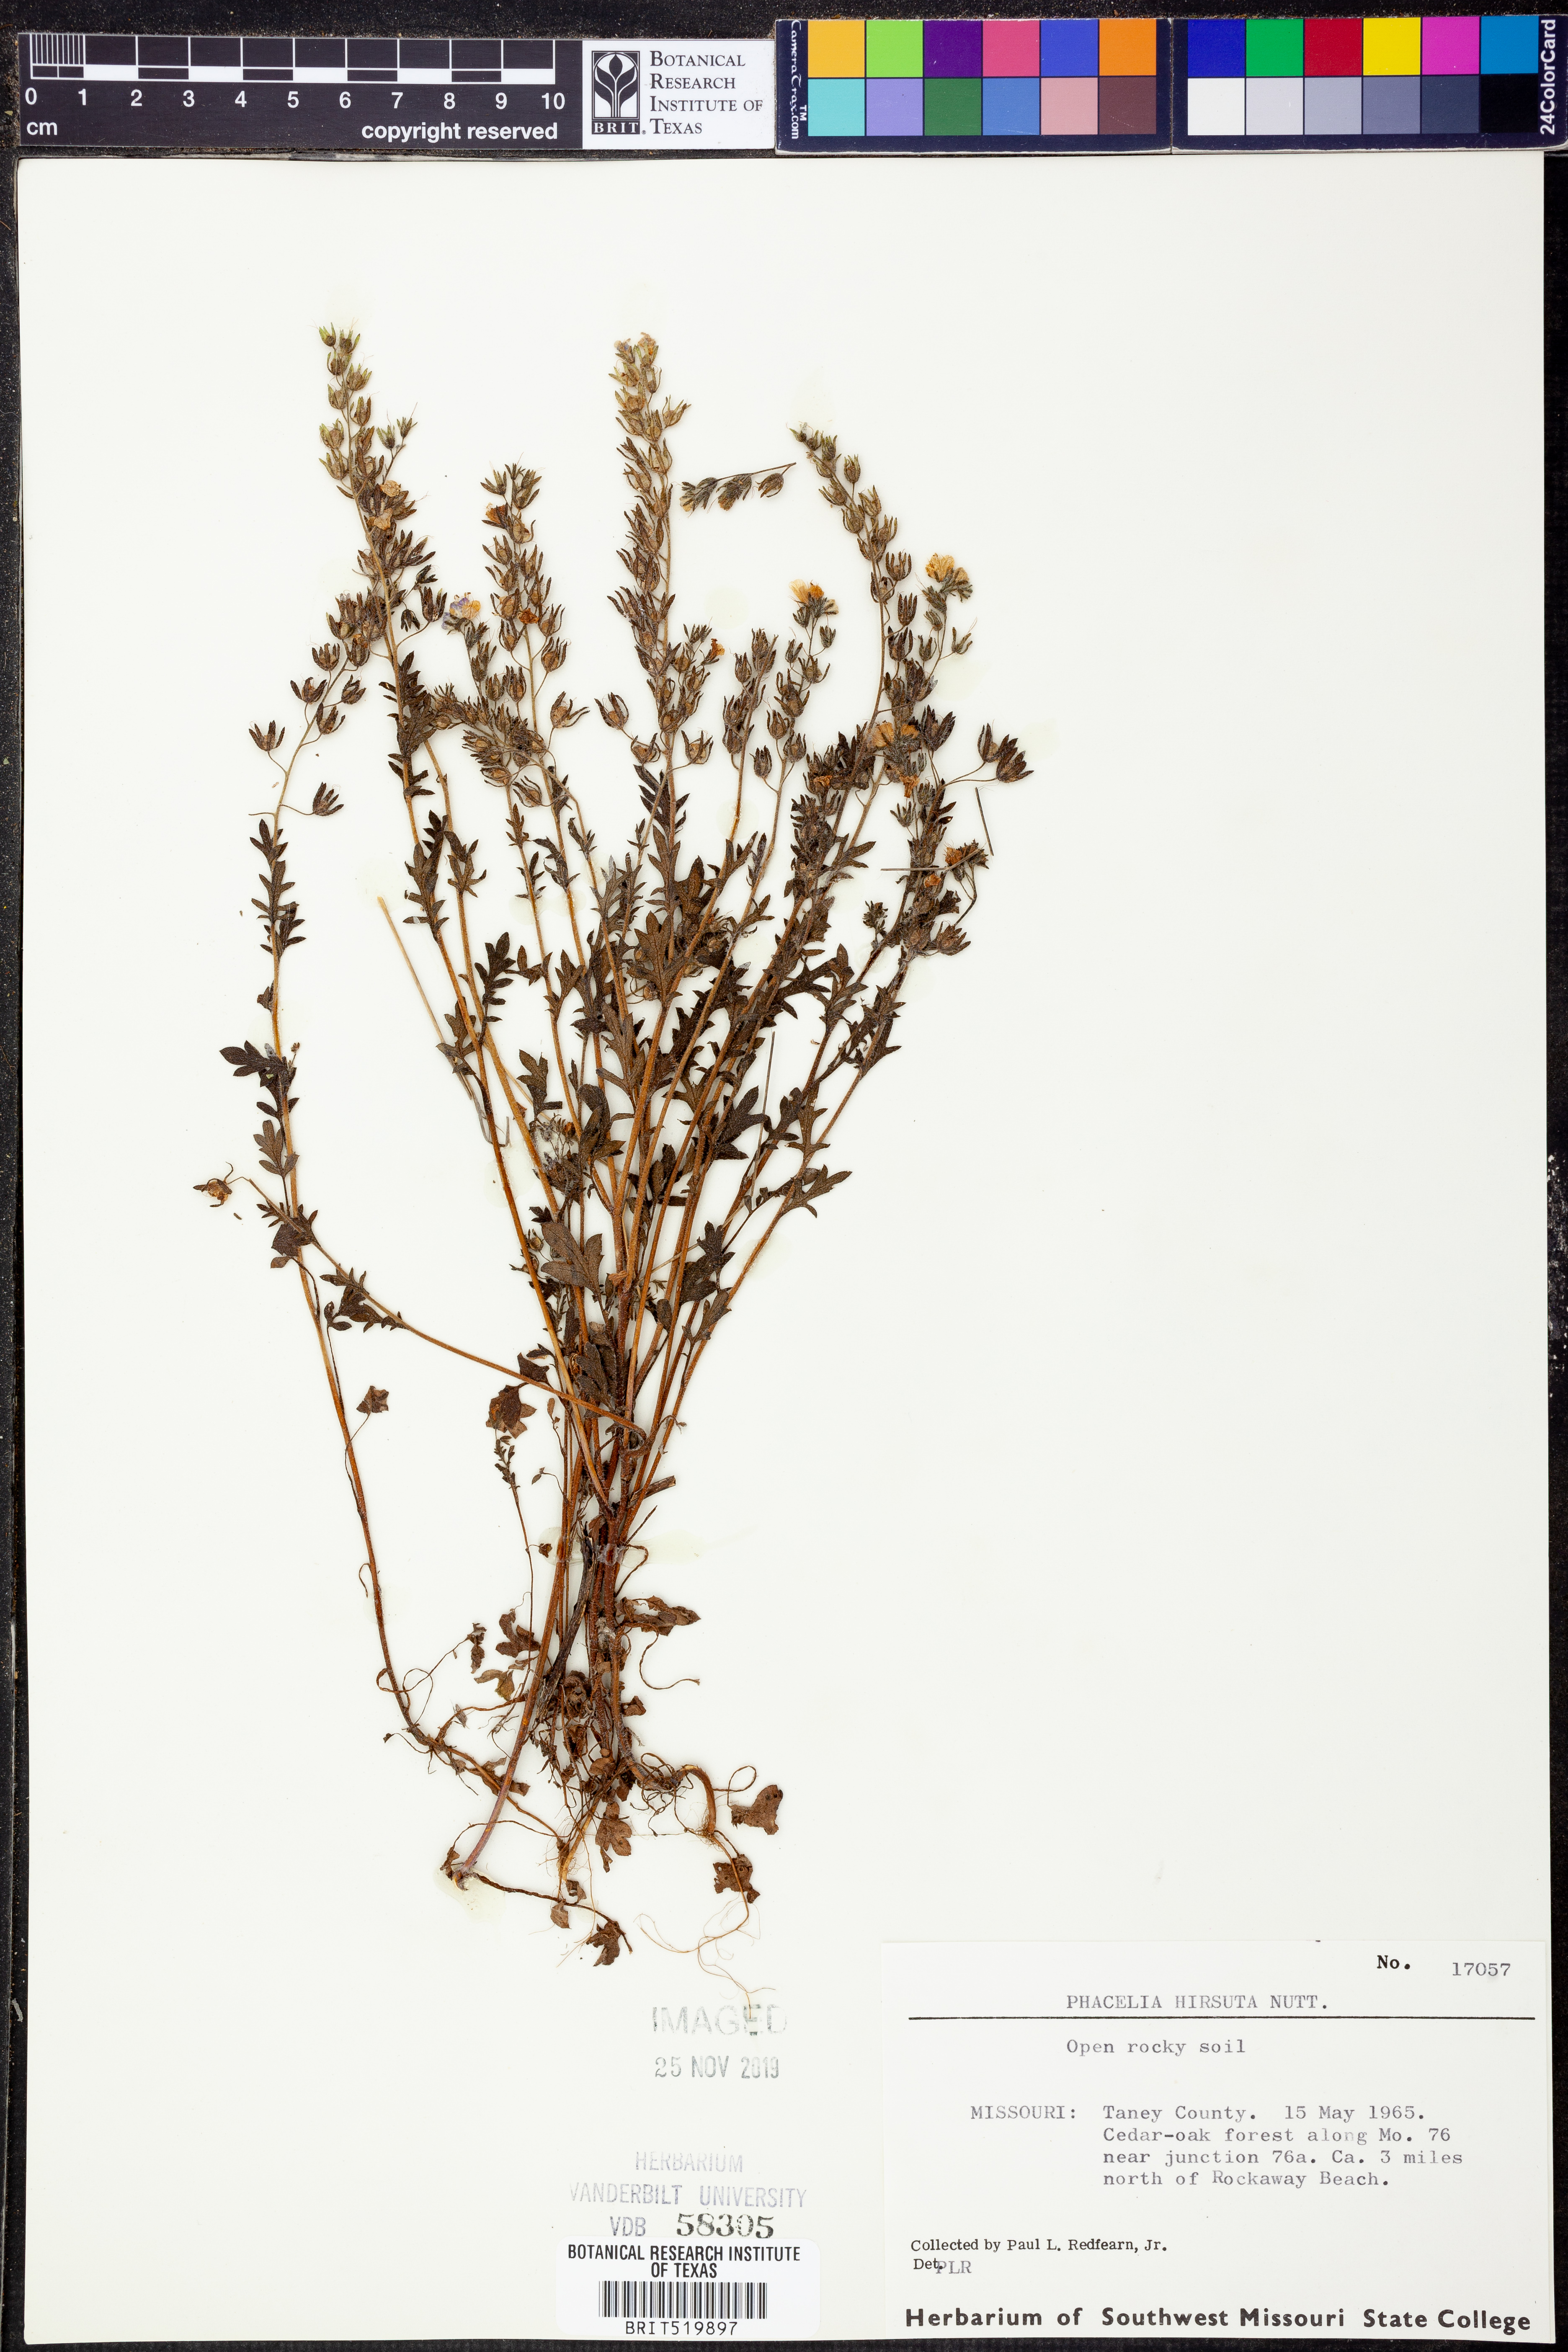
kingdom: Plantae
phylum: Tracheophyta
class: Magnoliopsida
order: Boraginales
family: Hydrophyllaceae
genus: Phacelia
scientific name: Phacelia hirsuta
